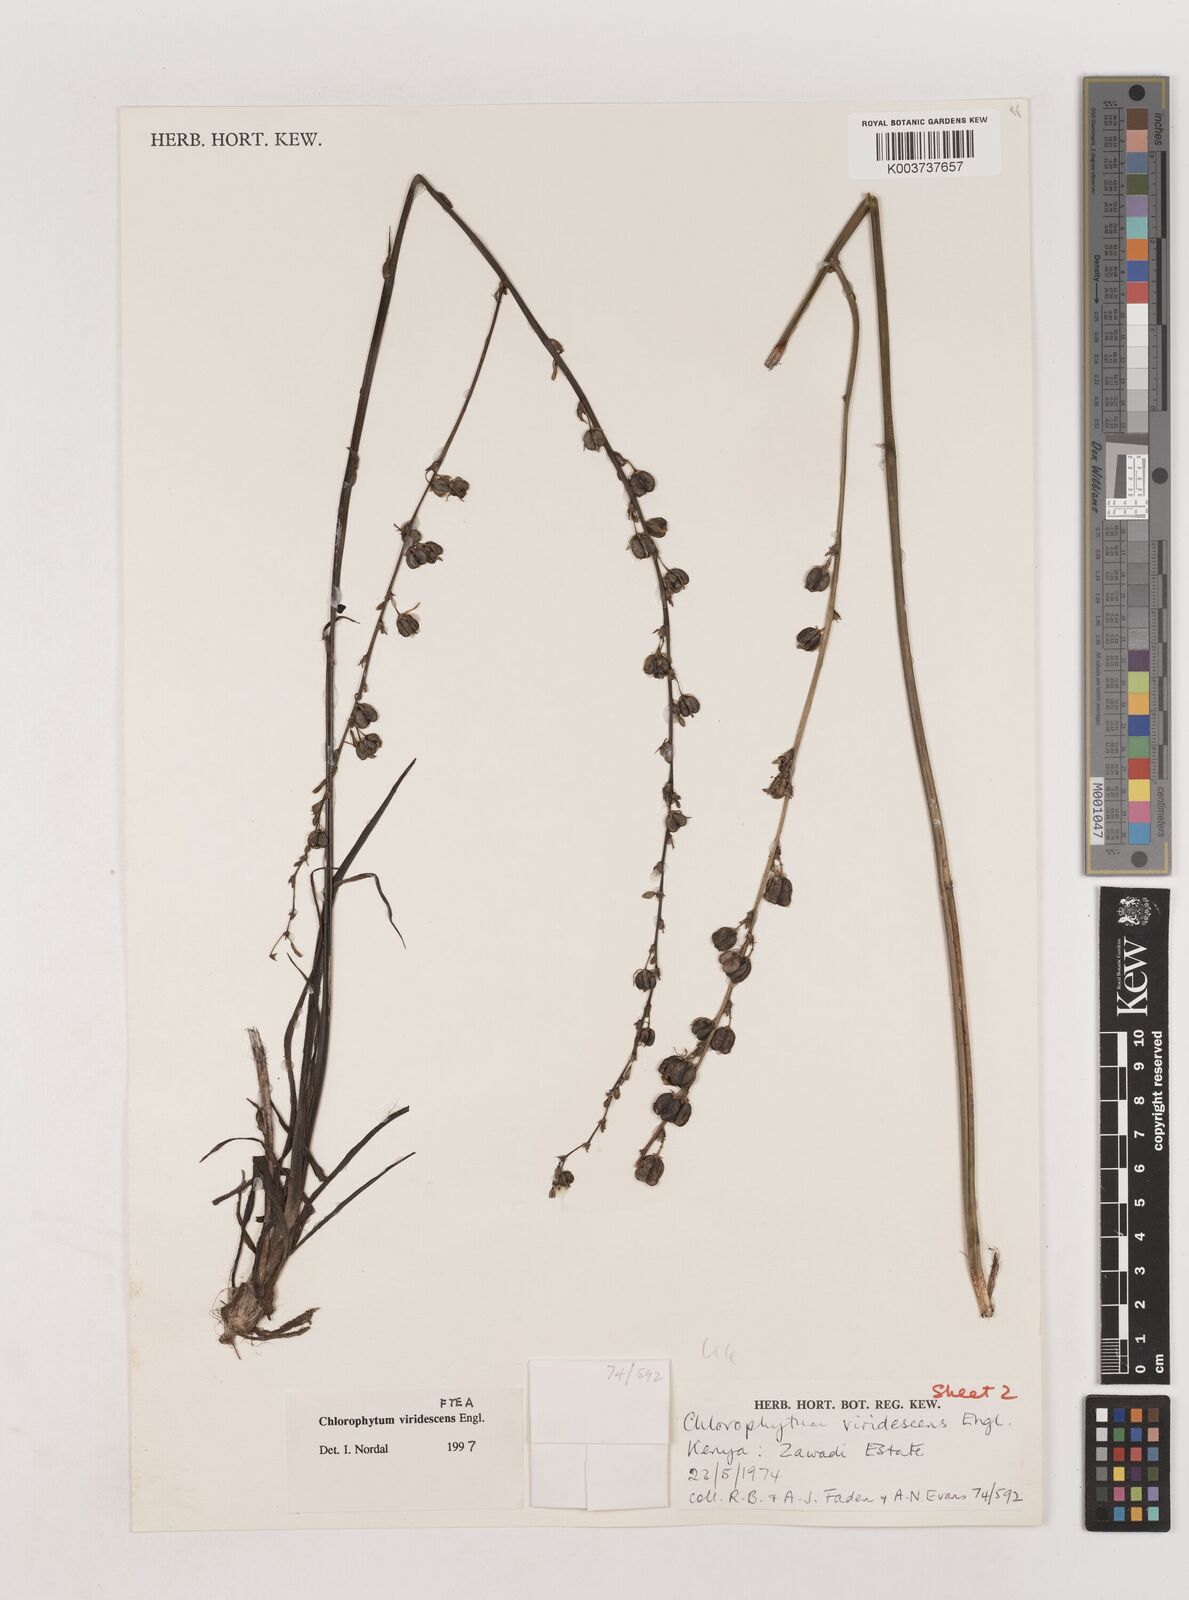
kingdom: Plantae
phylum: Tracheophyta
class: Liliopsida
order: Asparagales
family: Asparagaceae
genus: Chlorophytum
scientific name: Chlorophytum viridescens
